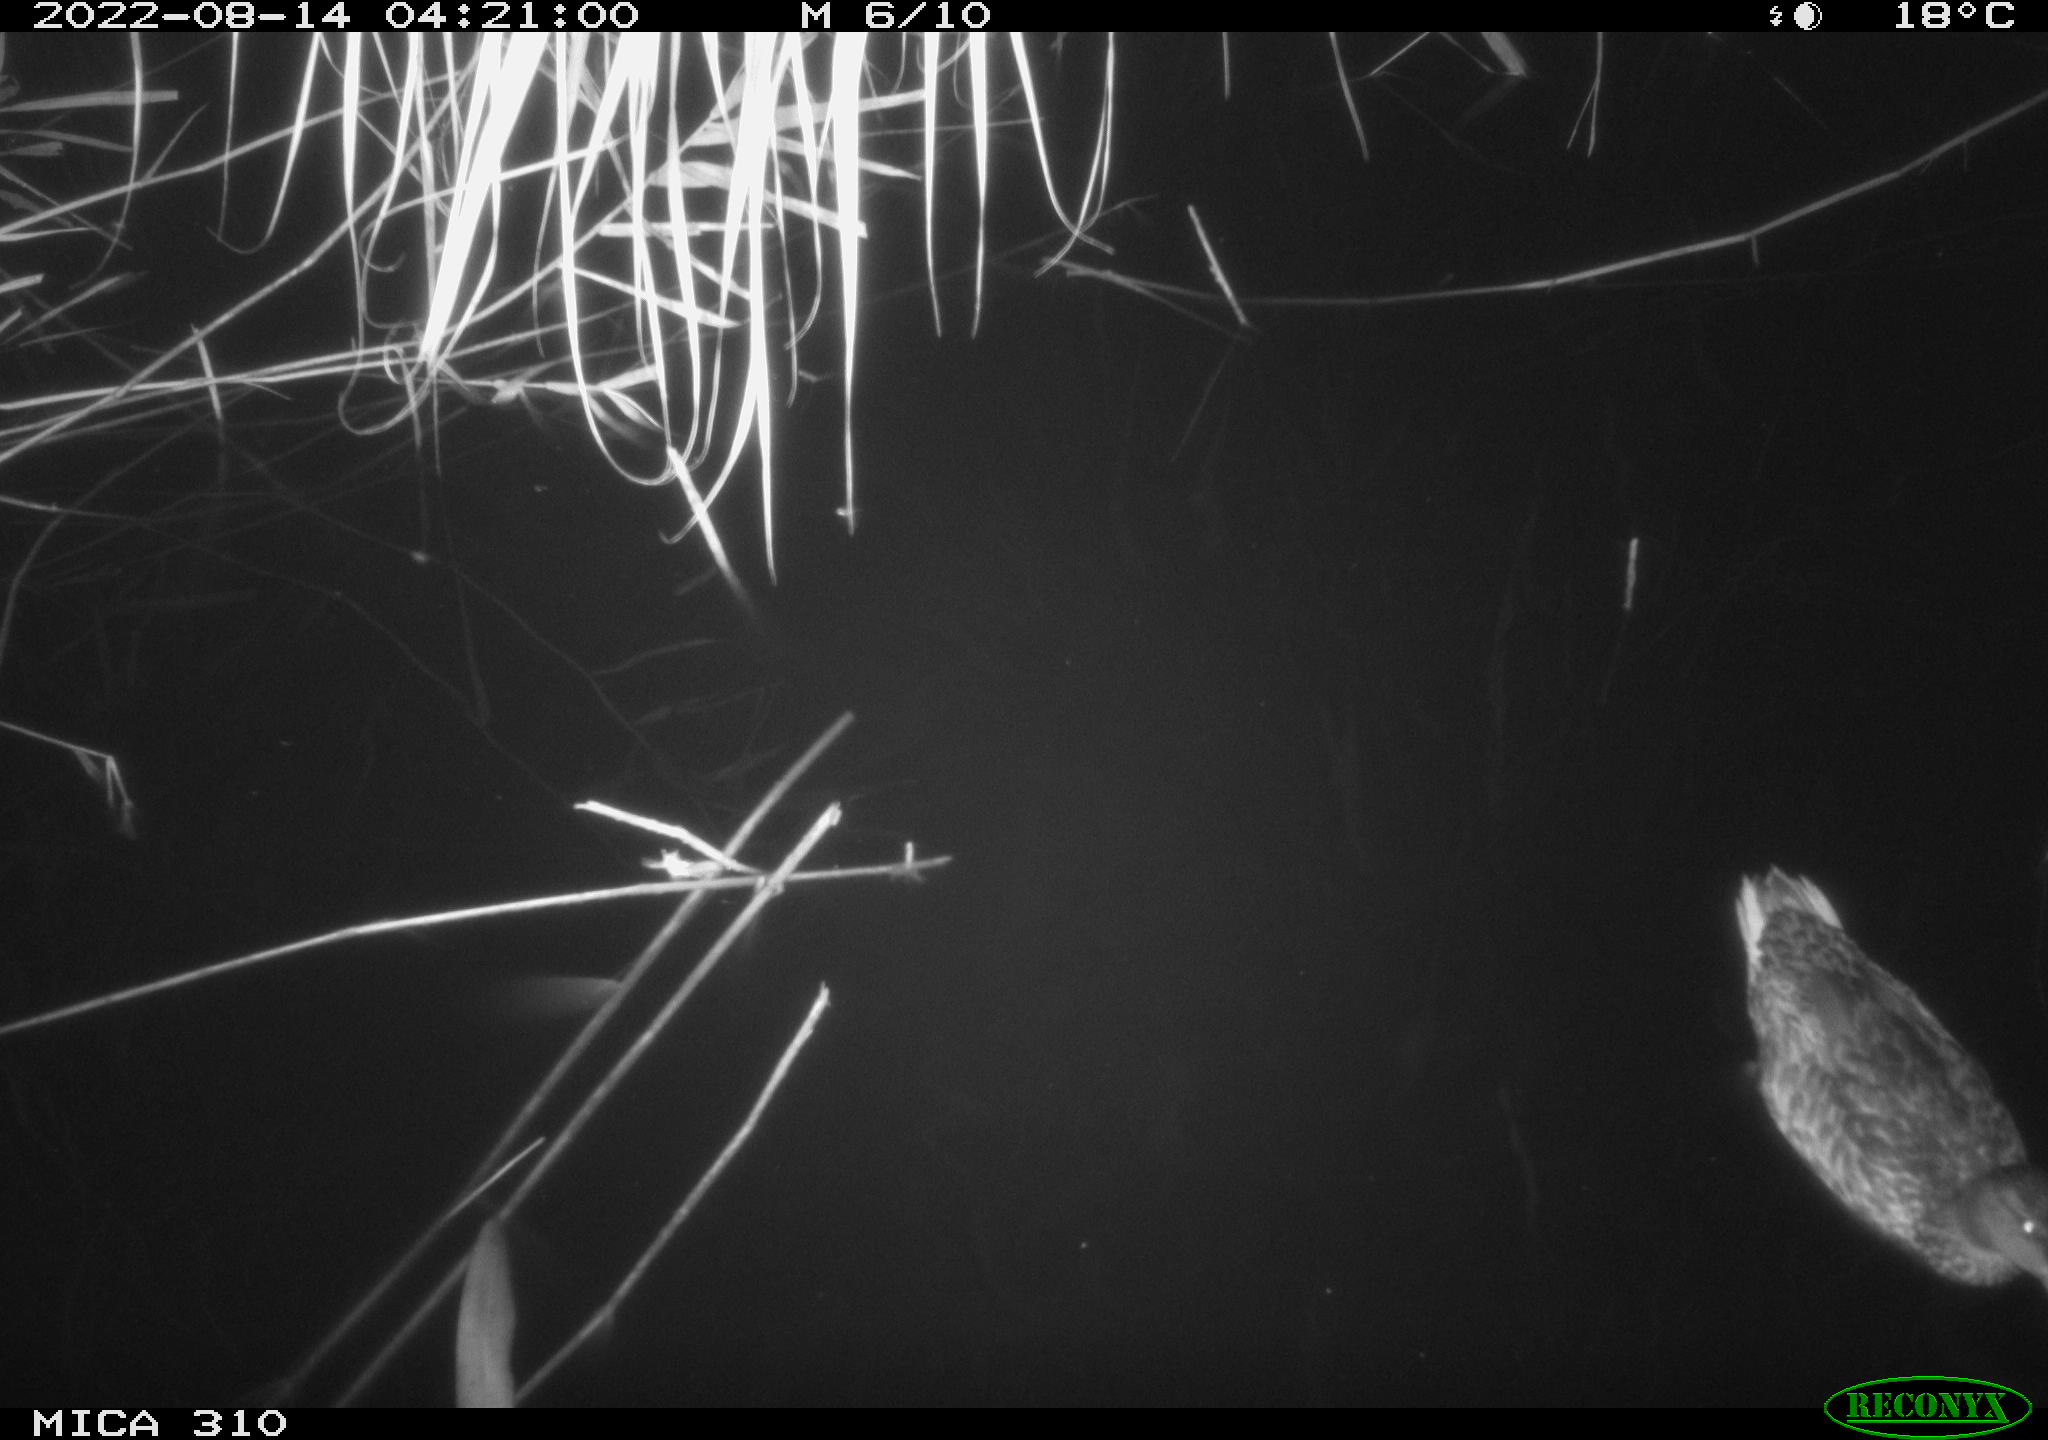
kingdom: Animalia
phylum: Chordata
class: Aves
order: Anseriformes
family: Anatidae
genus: Anas
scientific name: Anas platyrhynchos
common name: Mallard
